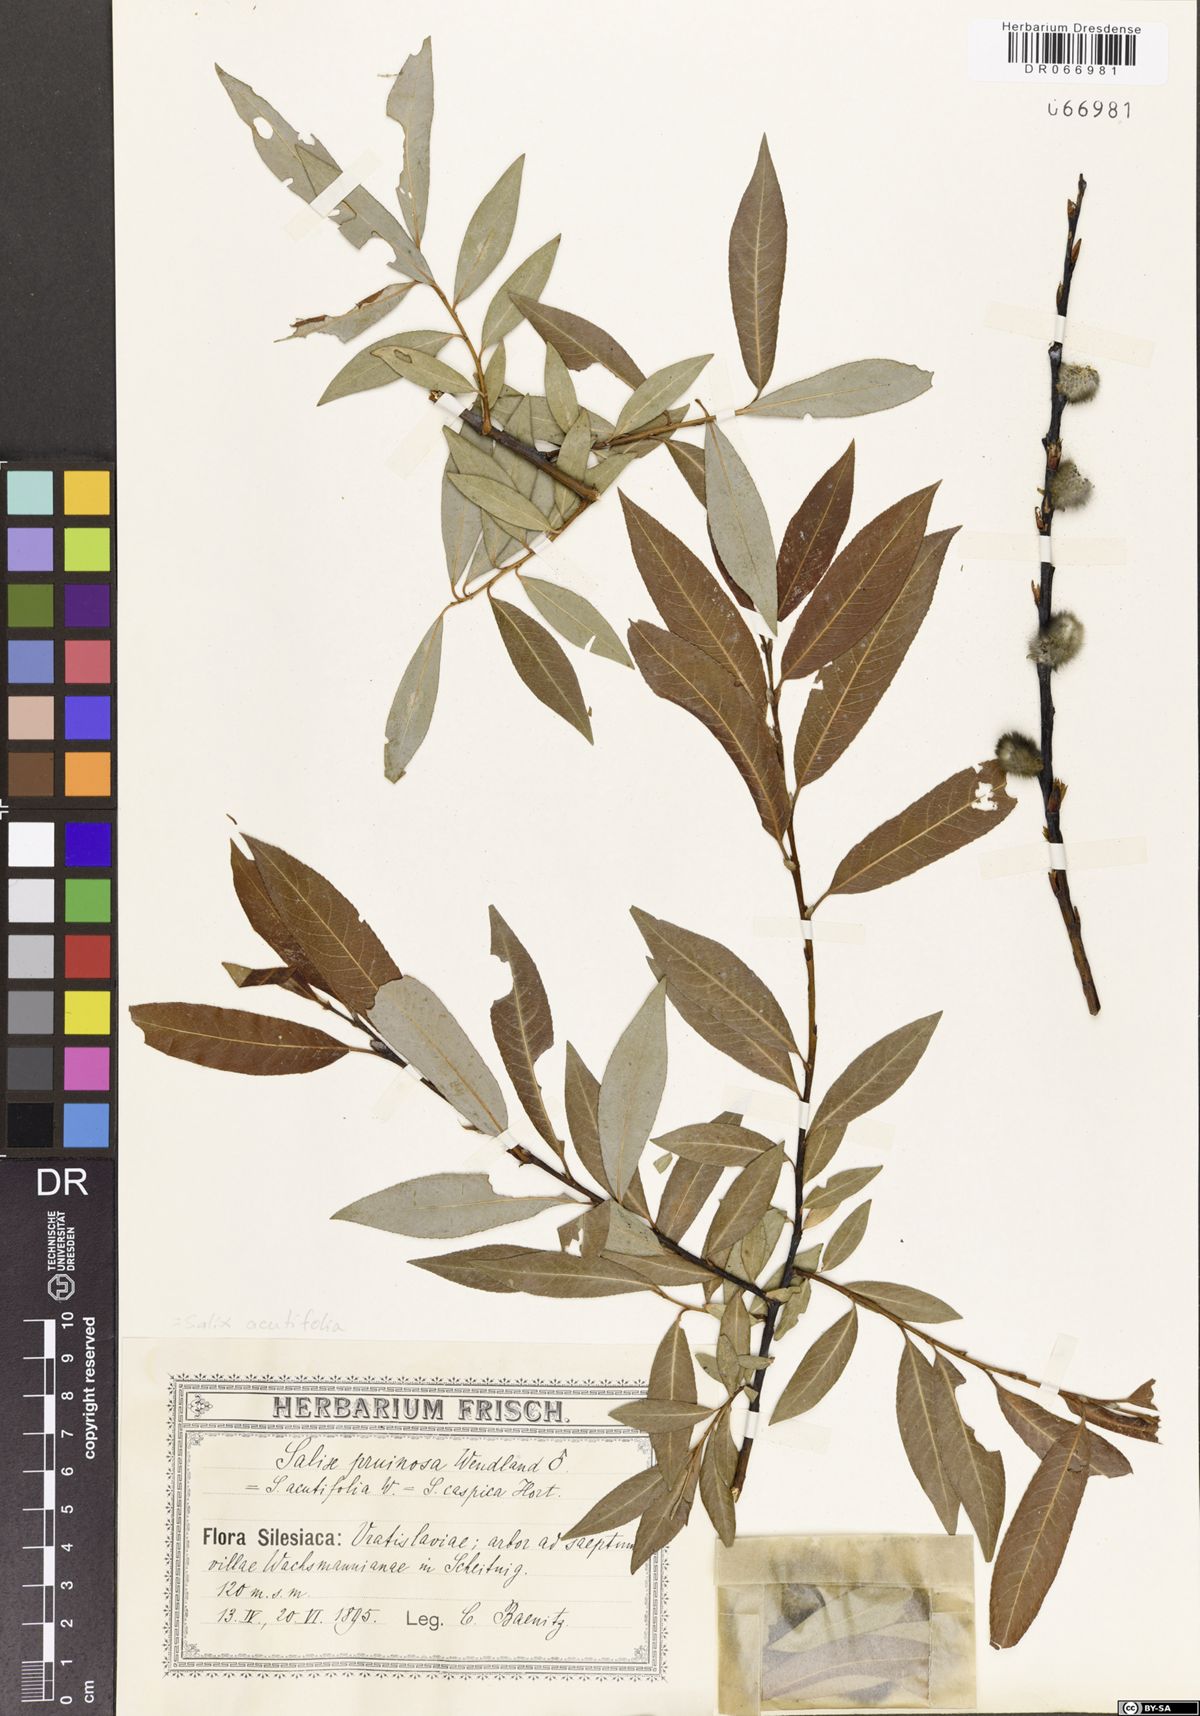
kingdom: Plantae
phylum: Tracheophyta
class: Magnoliopsida
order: Malpighiales
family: Salicaceae
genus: Salix
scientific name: Salix acutifolia
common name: Siberian violet-willow
